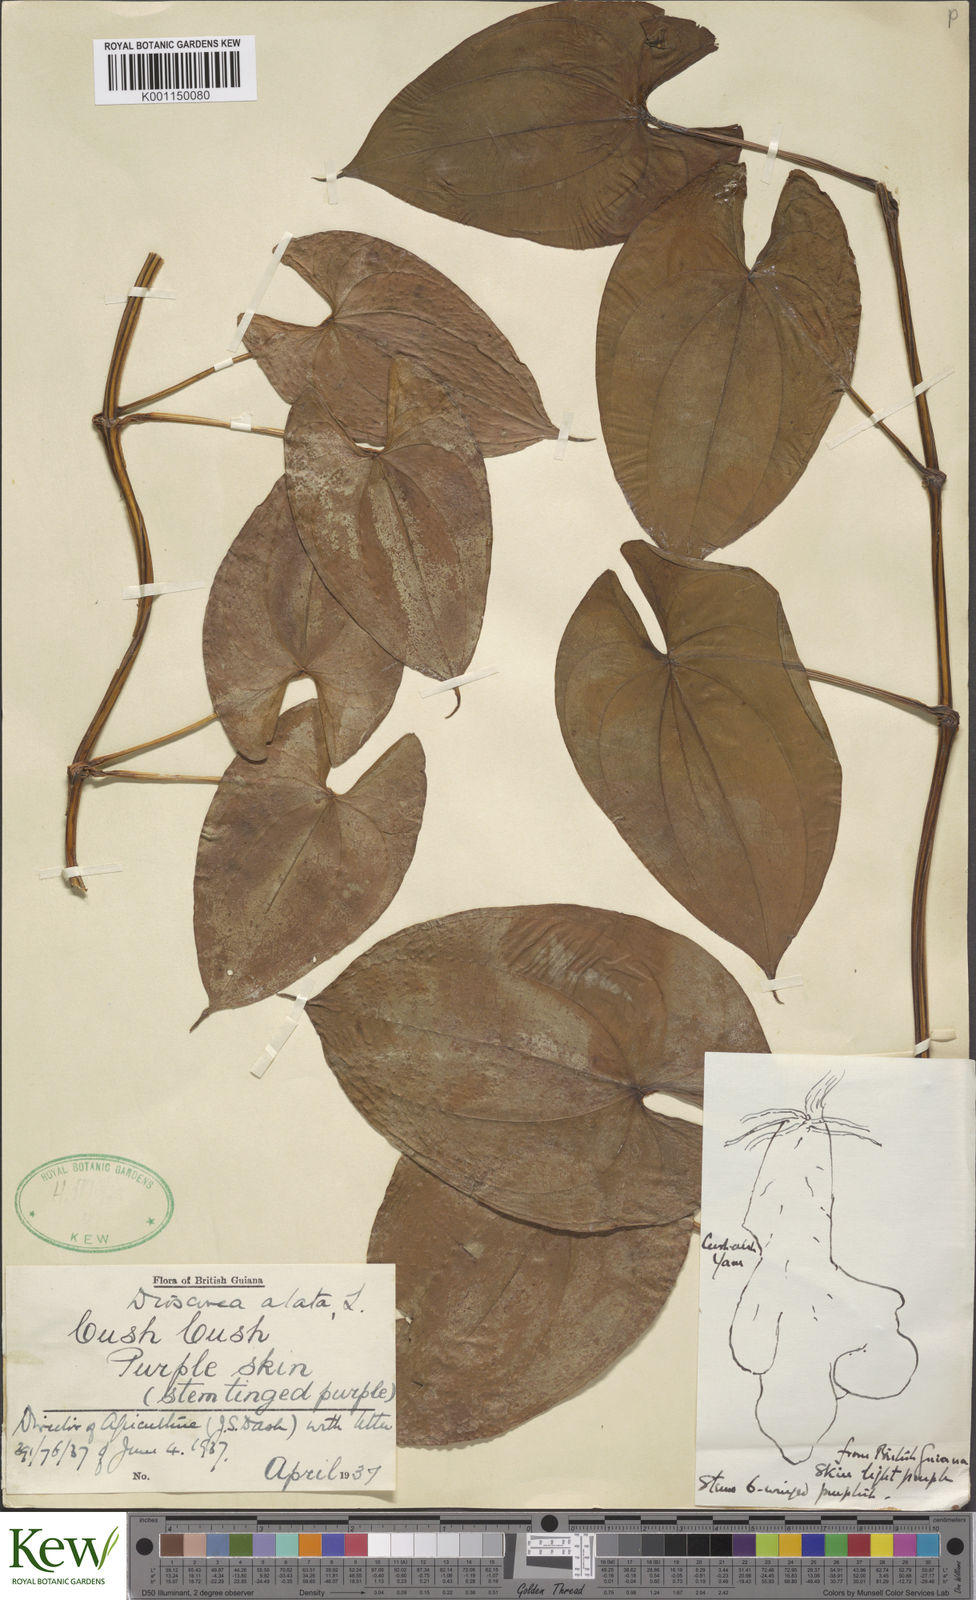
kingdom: Plantae
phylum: Tracheophyta
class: Liliopsida
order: Dioscoreales
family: Dioscoreaceae
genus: Dioscorea
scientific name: Dioscorea alata
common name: Water yam
